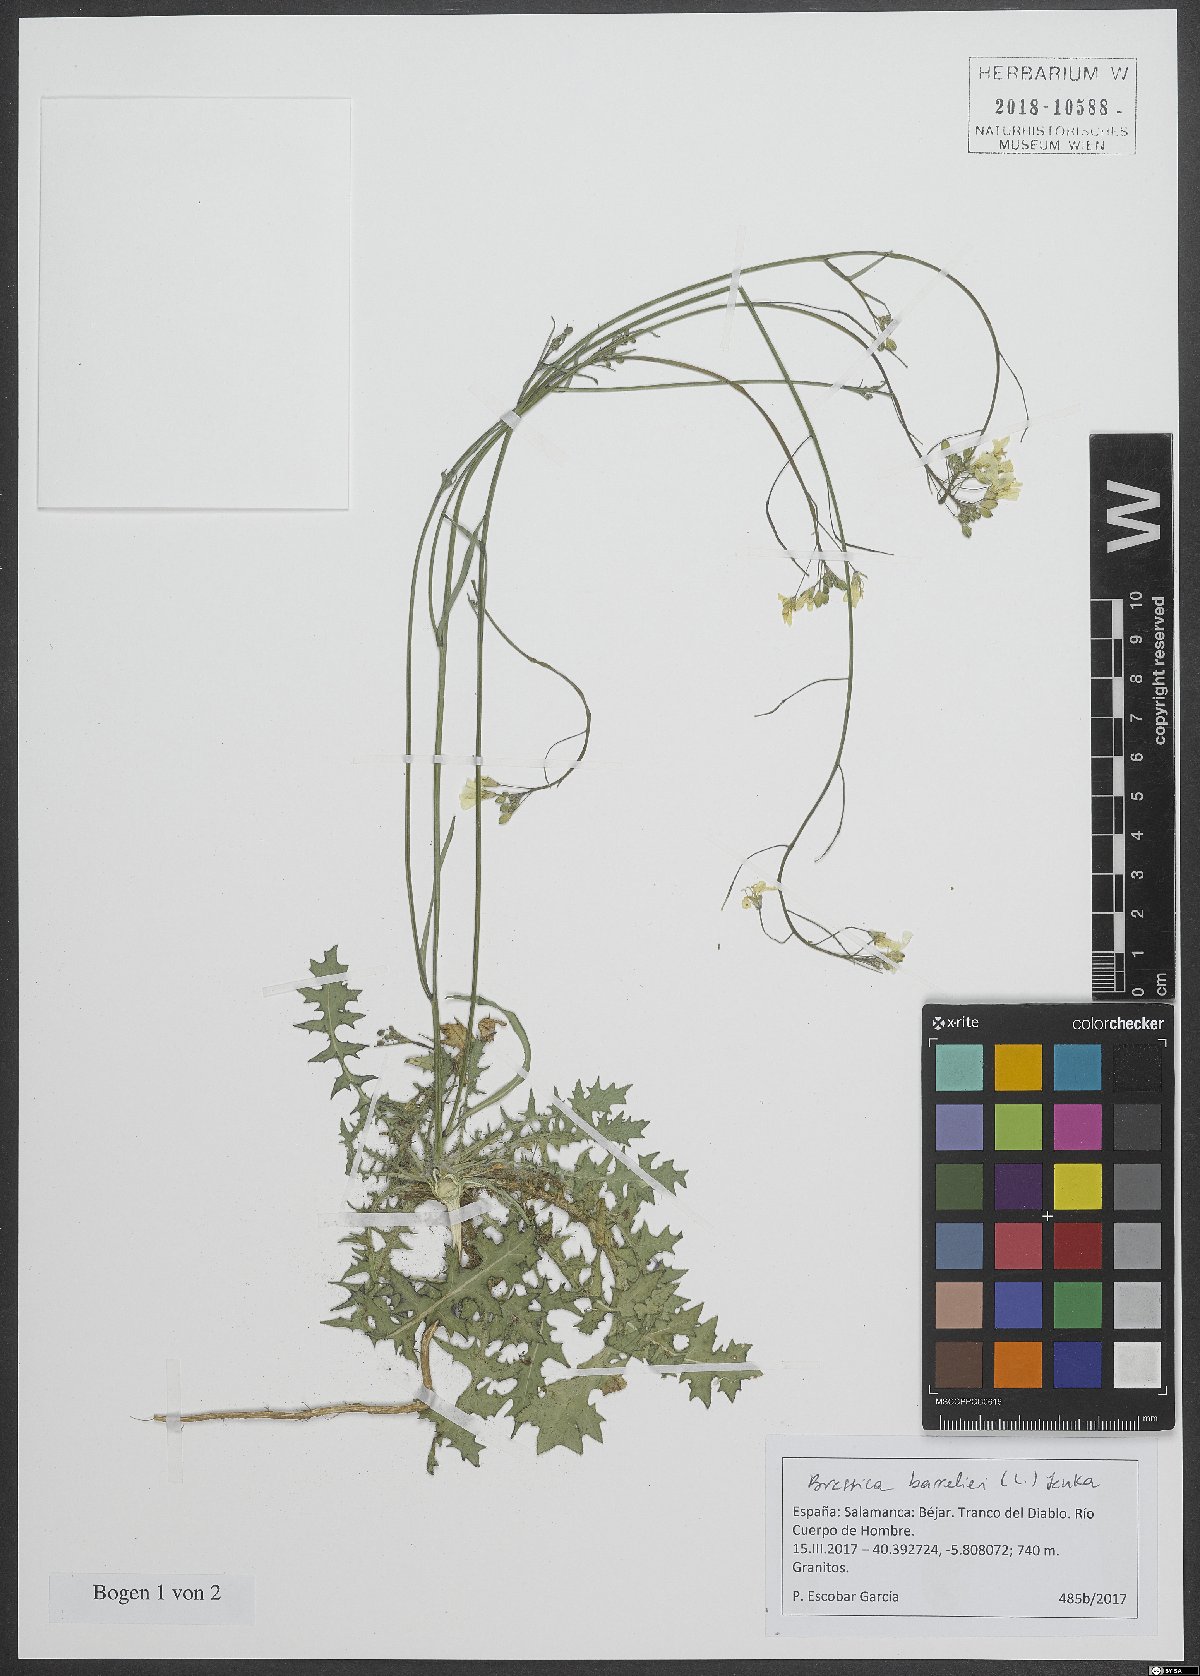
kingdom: Plantae
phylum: Tracheophyta
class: Magnoliopsida
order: Brassicales
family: Brassicaceae
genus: Brassica
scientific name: Brassica barrelieri
